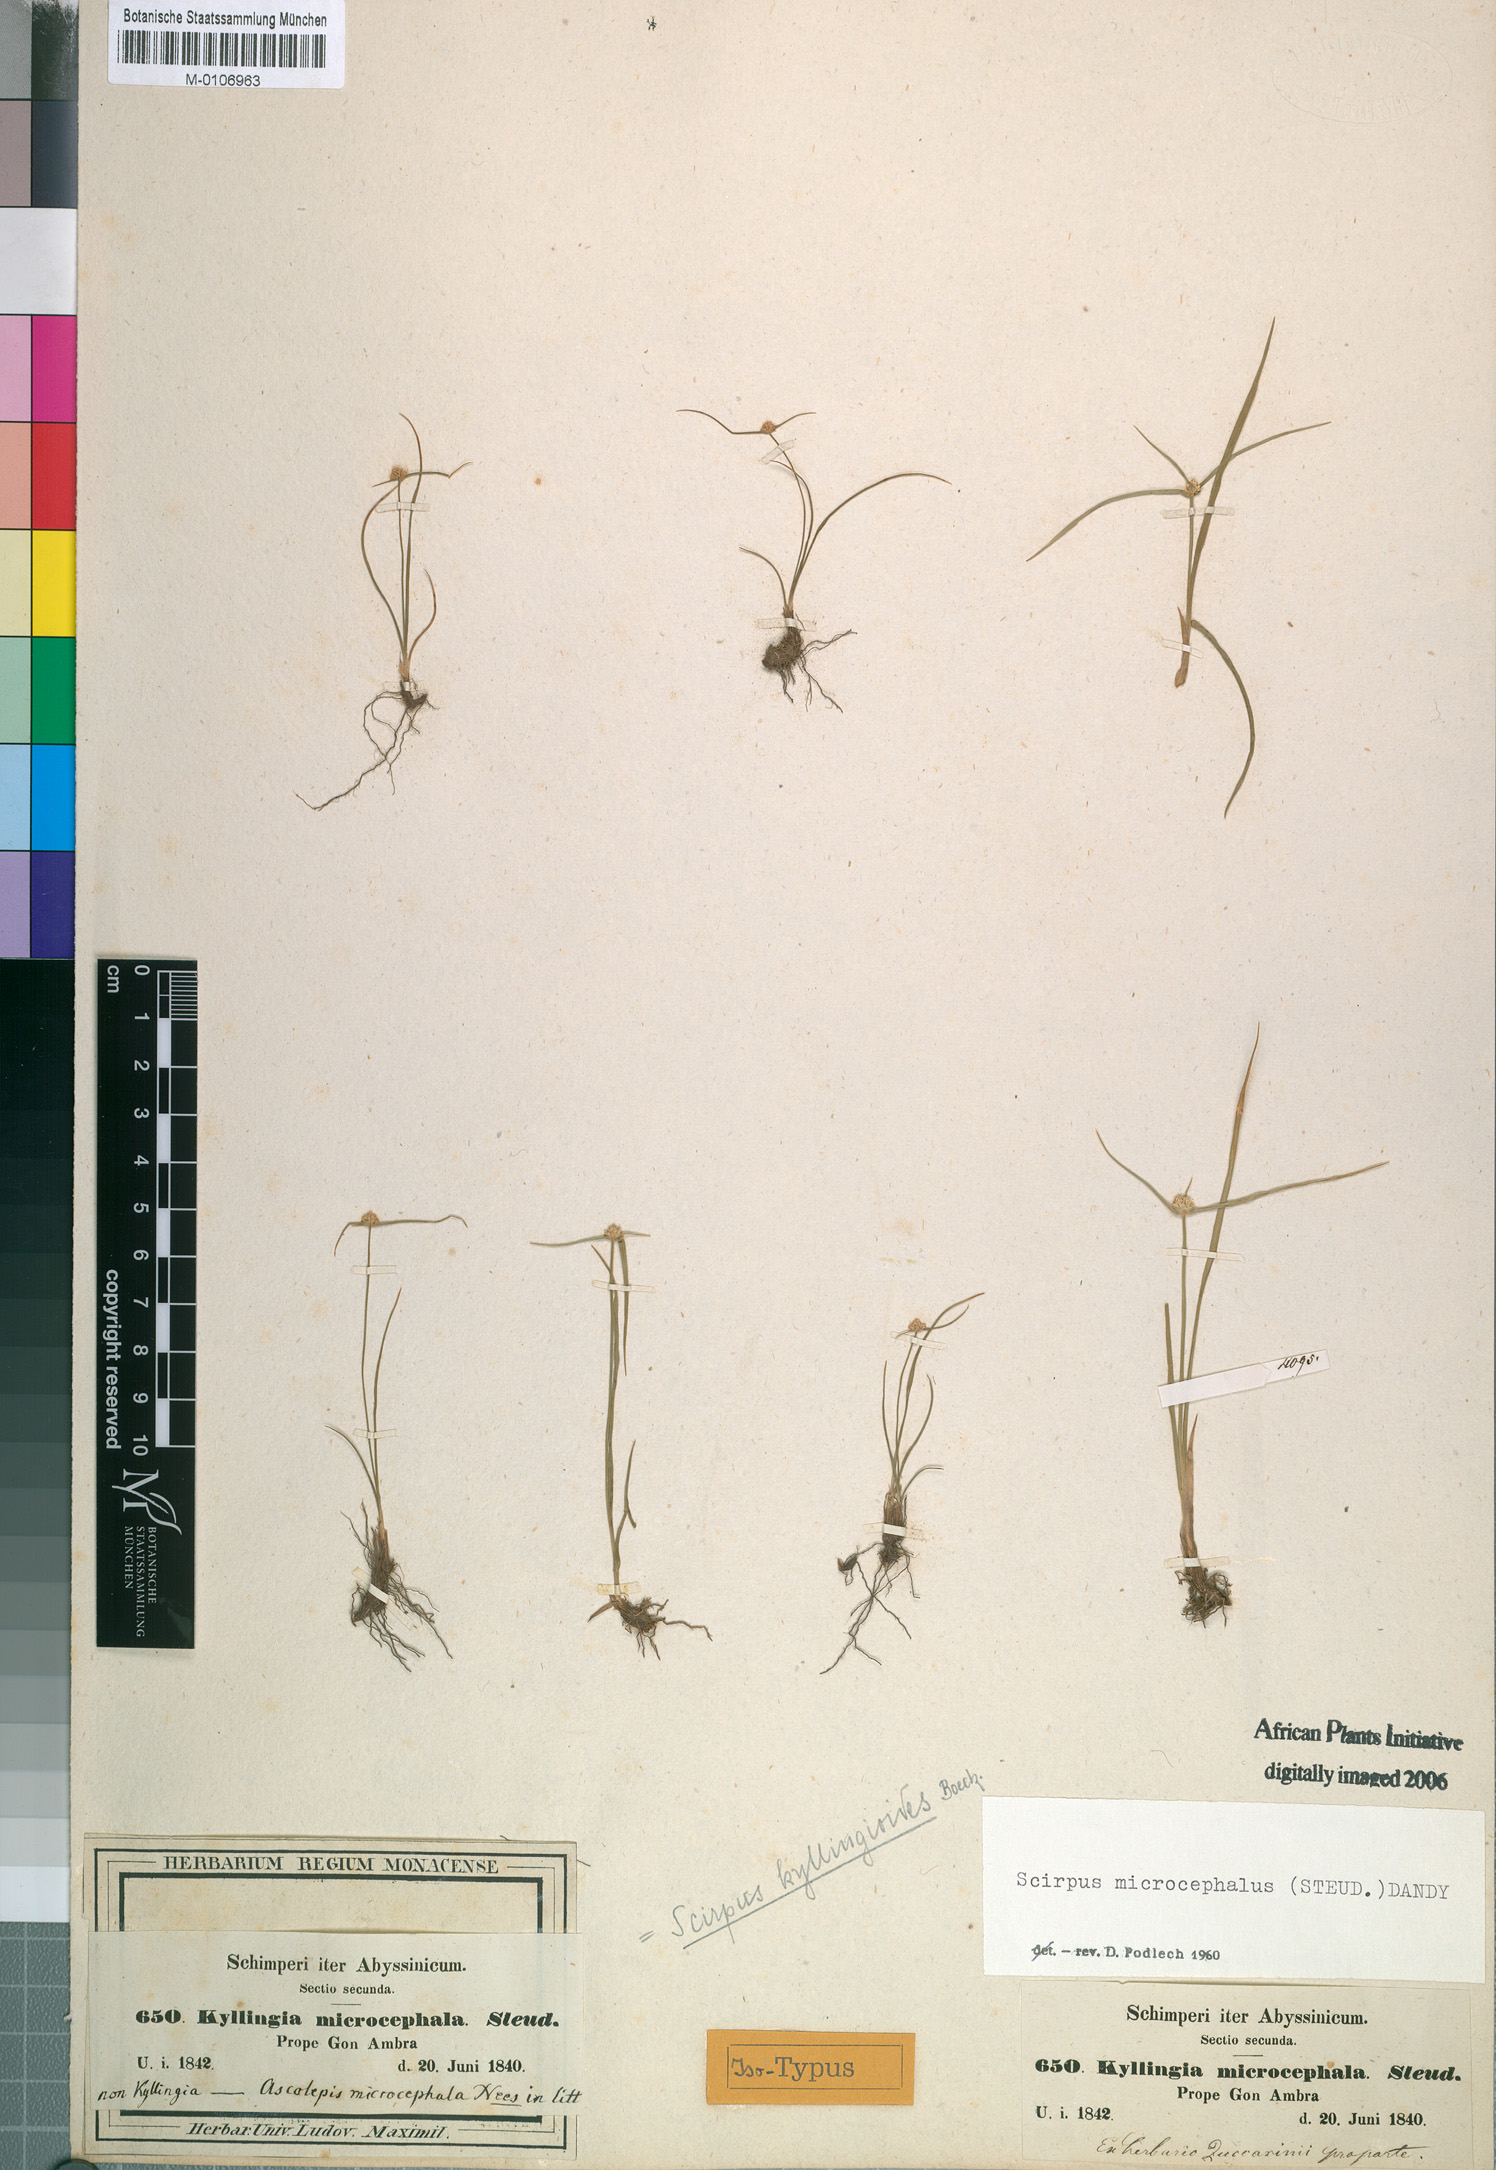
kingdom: Plantae
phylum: Tracheophyta
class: Liliopsida
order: Poales
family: Cyperaceae
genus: Cyperus
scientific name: Cyperus kyllingiella
